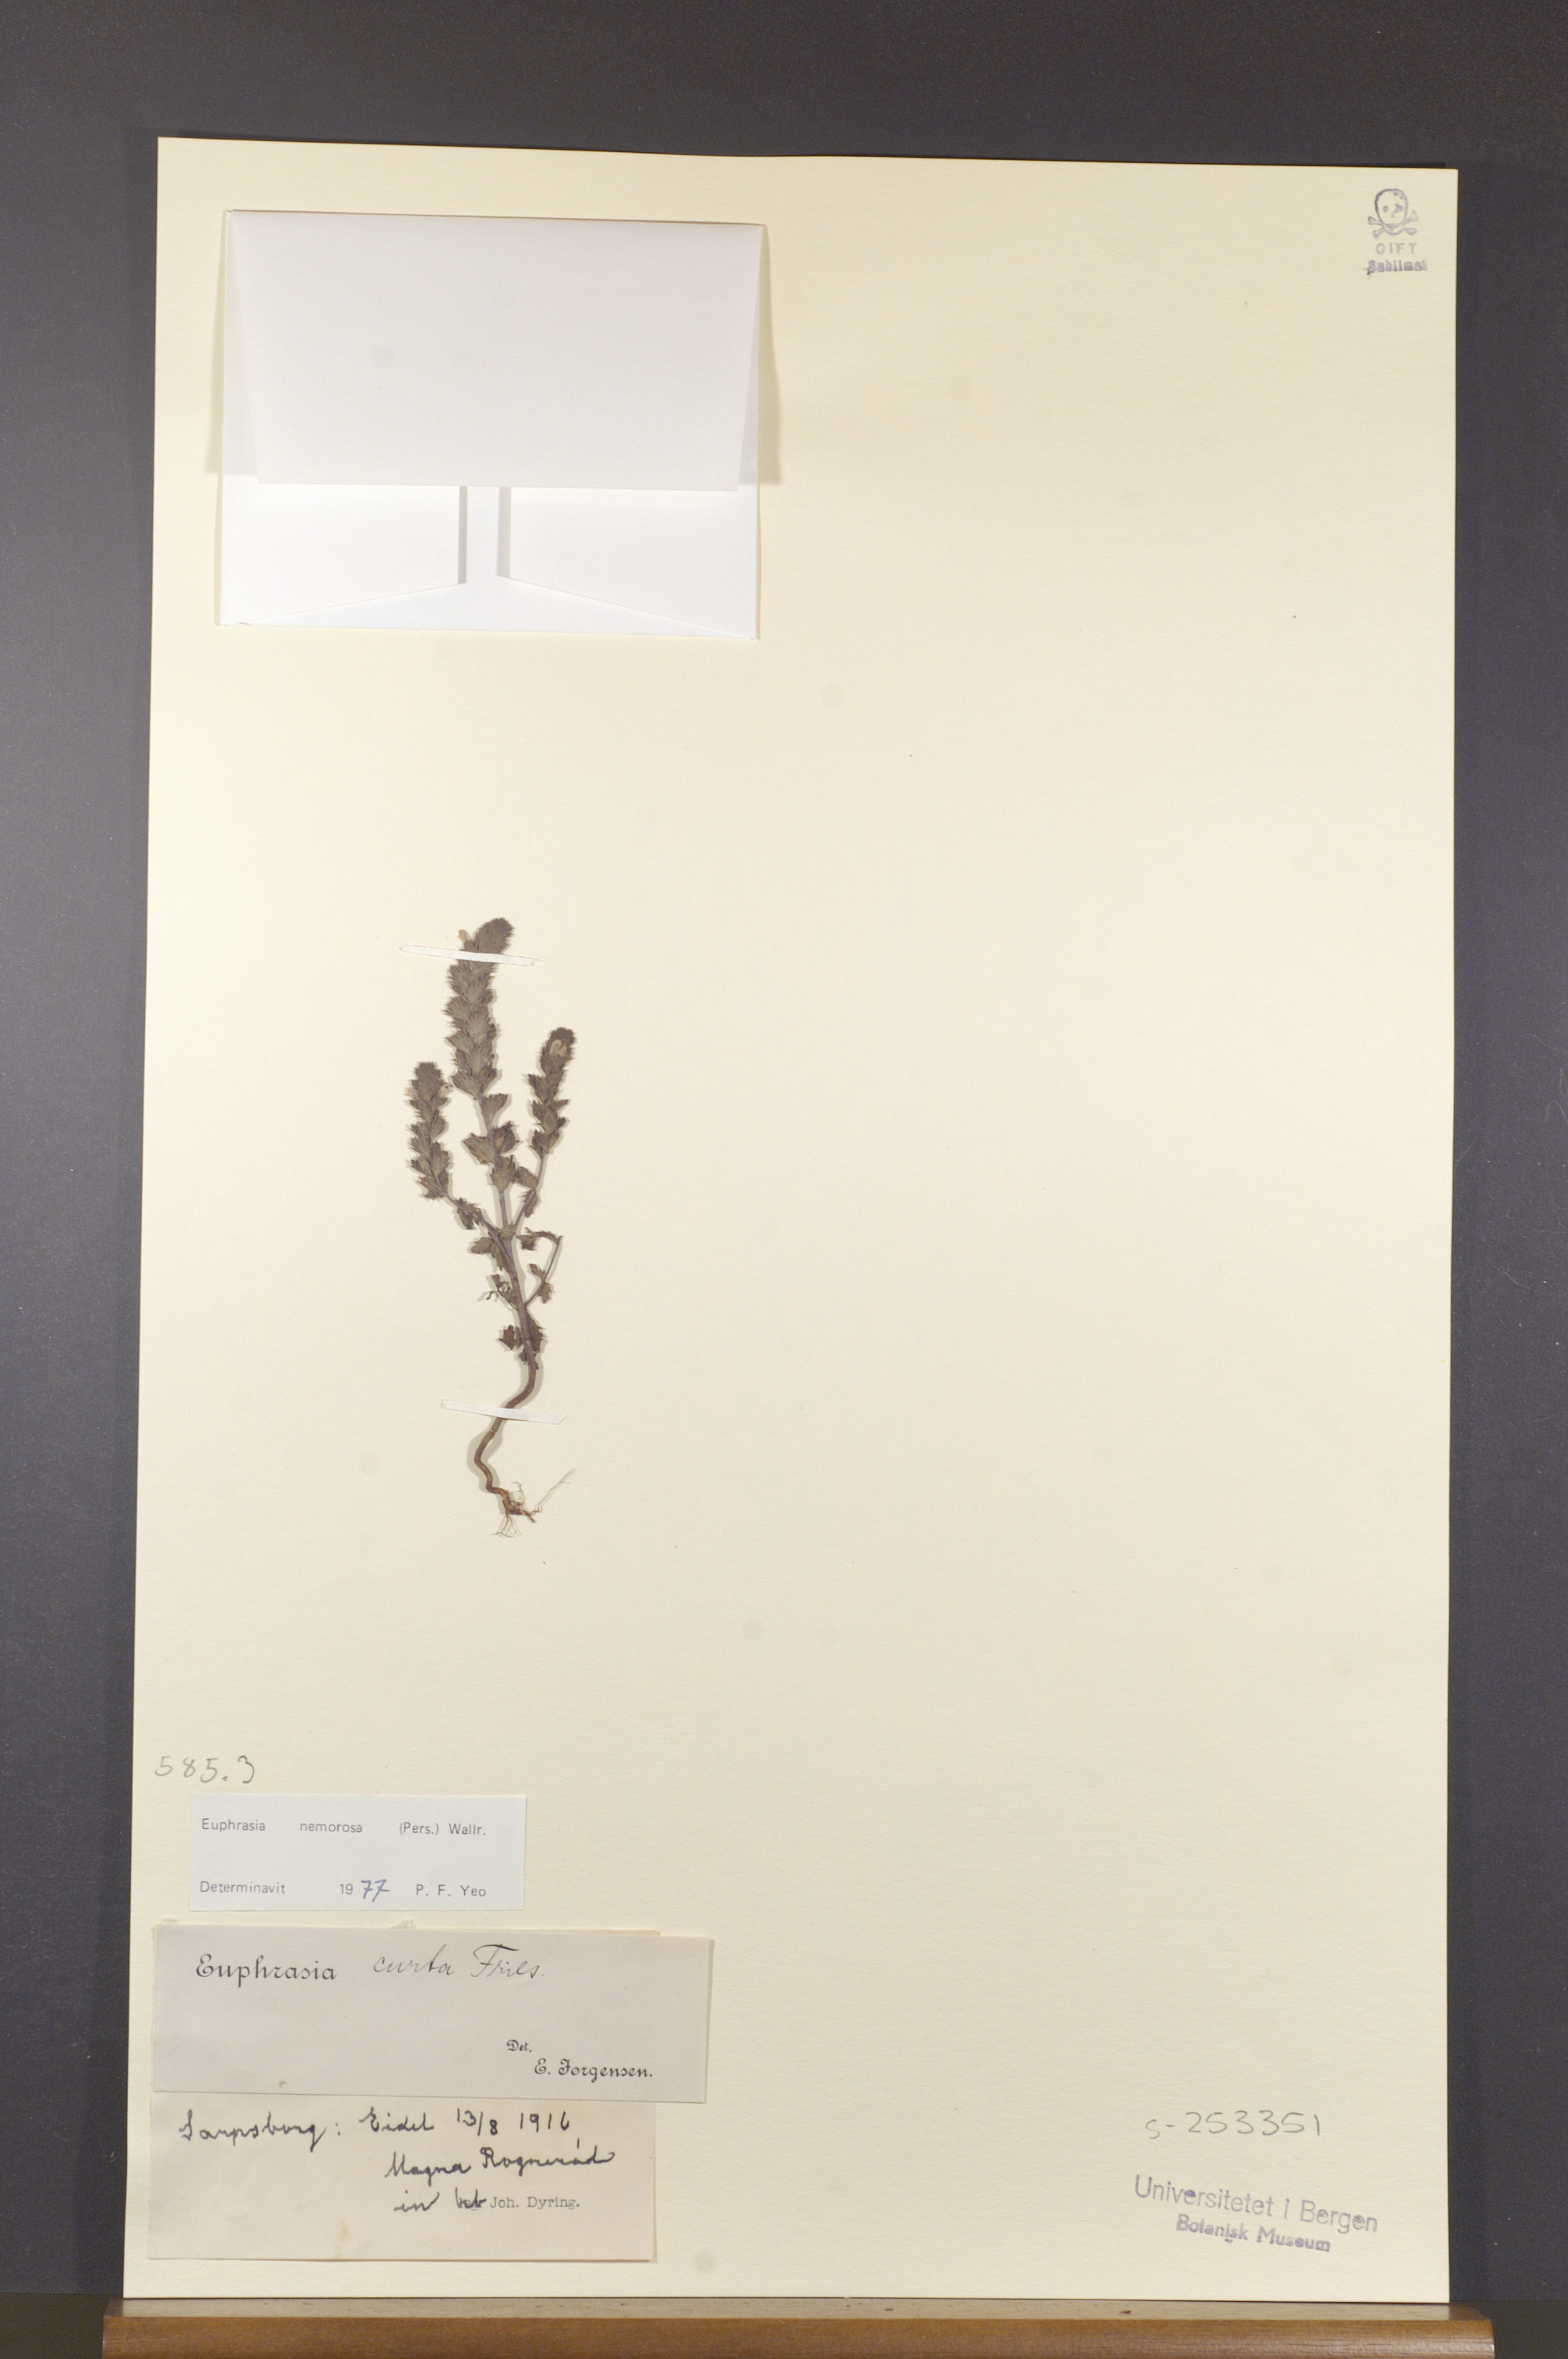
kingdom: Plantae
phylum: Tracheophyta
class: Magnoliopsida
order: Lamiales
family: Orobanchaceae
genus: Euphrasia
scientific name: Euphrasia nemorosa
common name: Common eyebright
